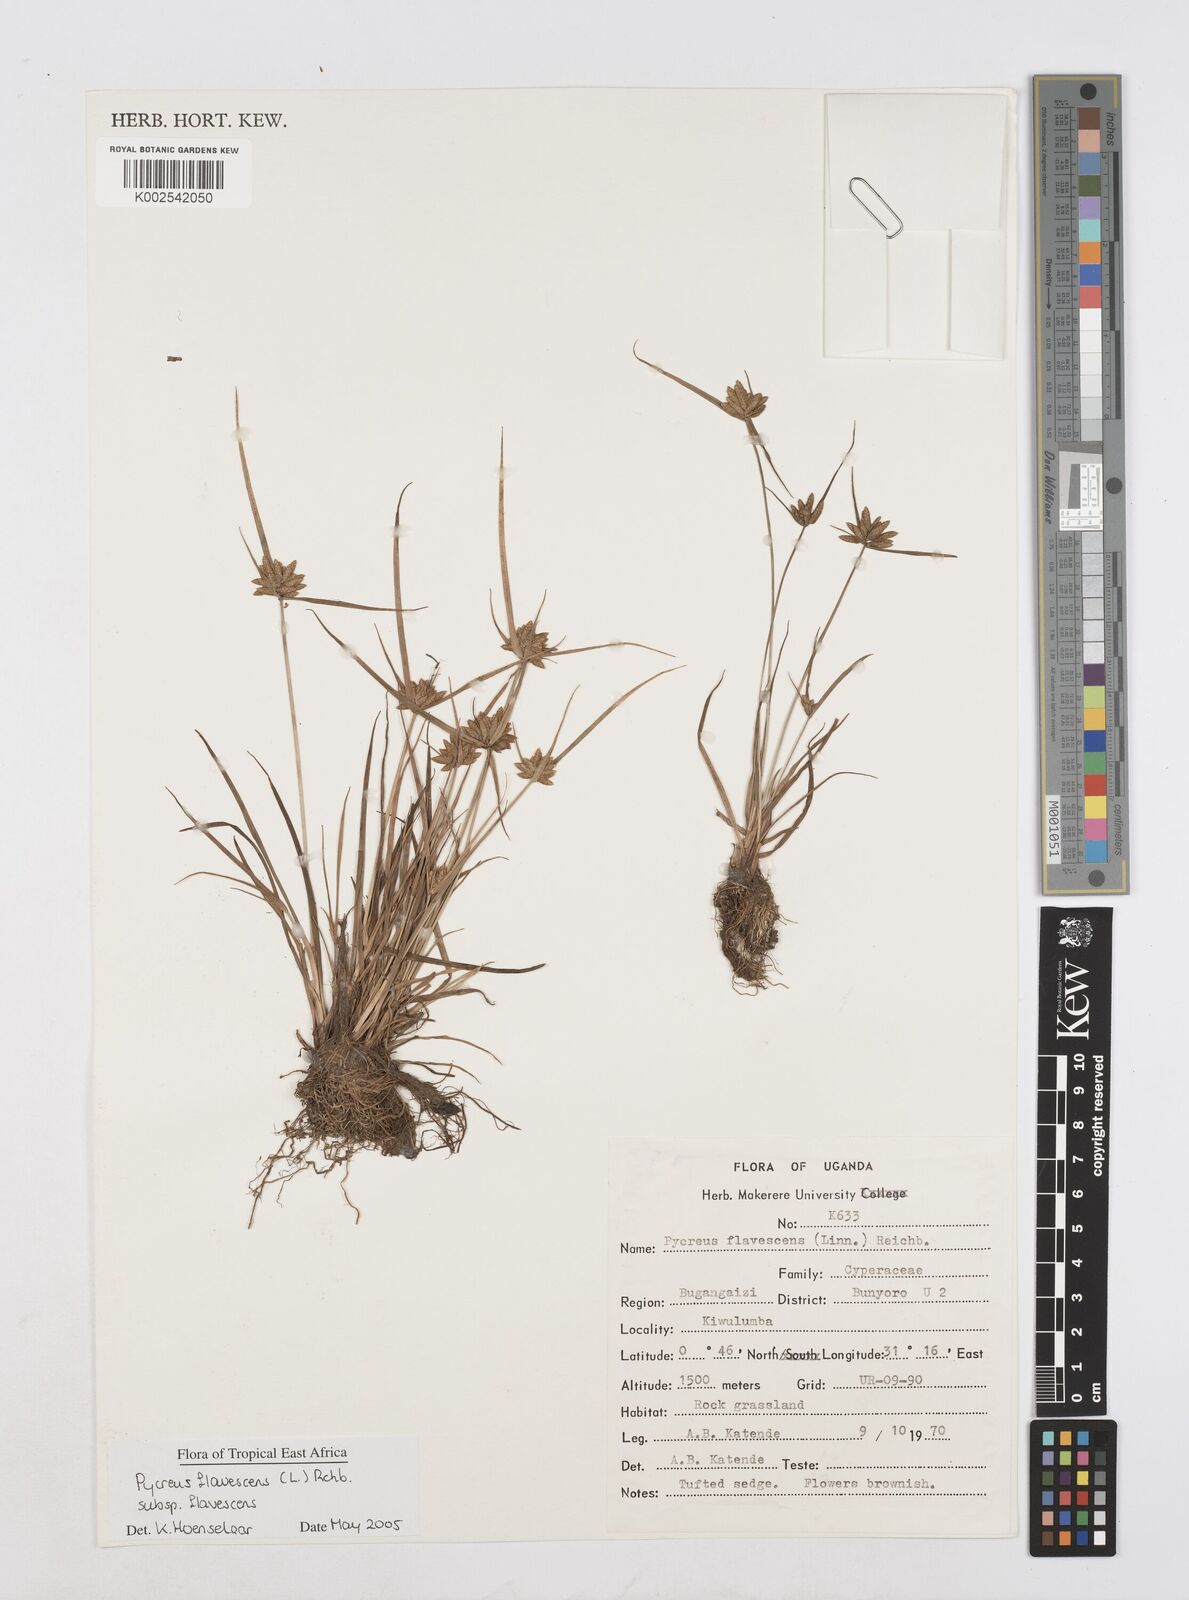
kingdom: Plantae
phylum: Tracheophyta
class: Liliopsida
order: Poales
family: Cyperaceae
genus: Cyperus
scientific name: Cyperus flavescens
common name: Yellow galingale
